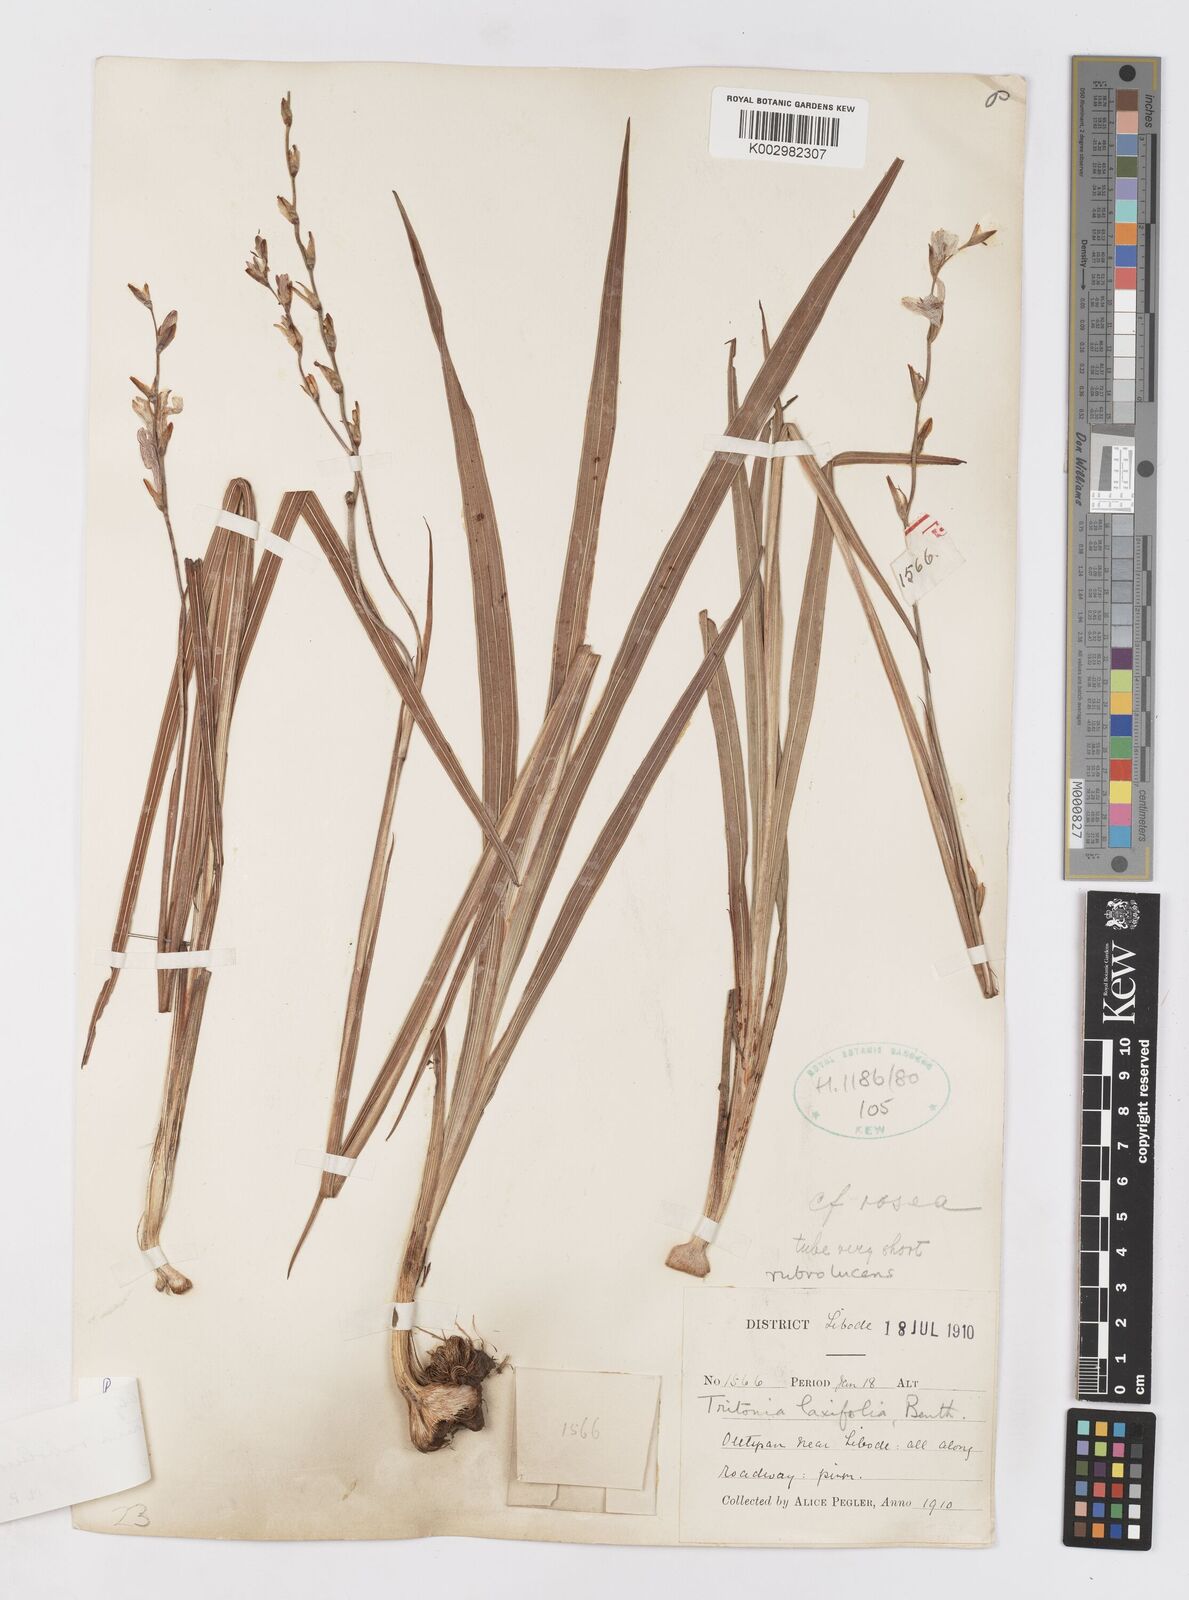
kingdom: Plantae
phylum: Tracheophyta
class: Liliopsida
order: Asparagales
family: Iridaceae
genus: Tritonia
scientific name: Tritonia disticha
